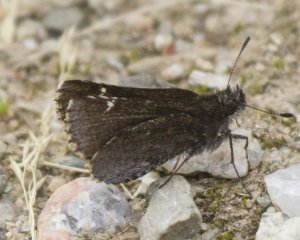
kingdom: Animalia
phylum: Arthropoda
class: Insecta
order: Lepidoptera
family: Hesperiidae
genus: Mastor
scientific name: Mastor vialis
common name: Common Roadside-Skipper
